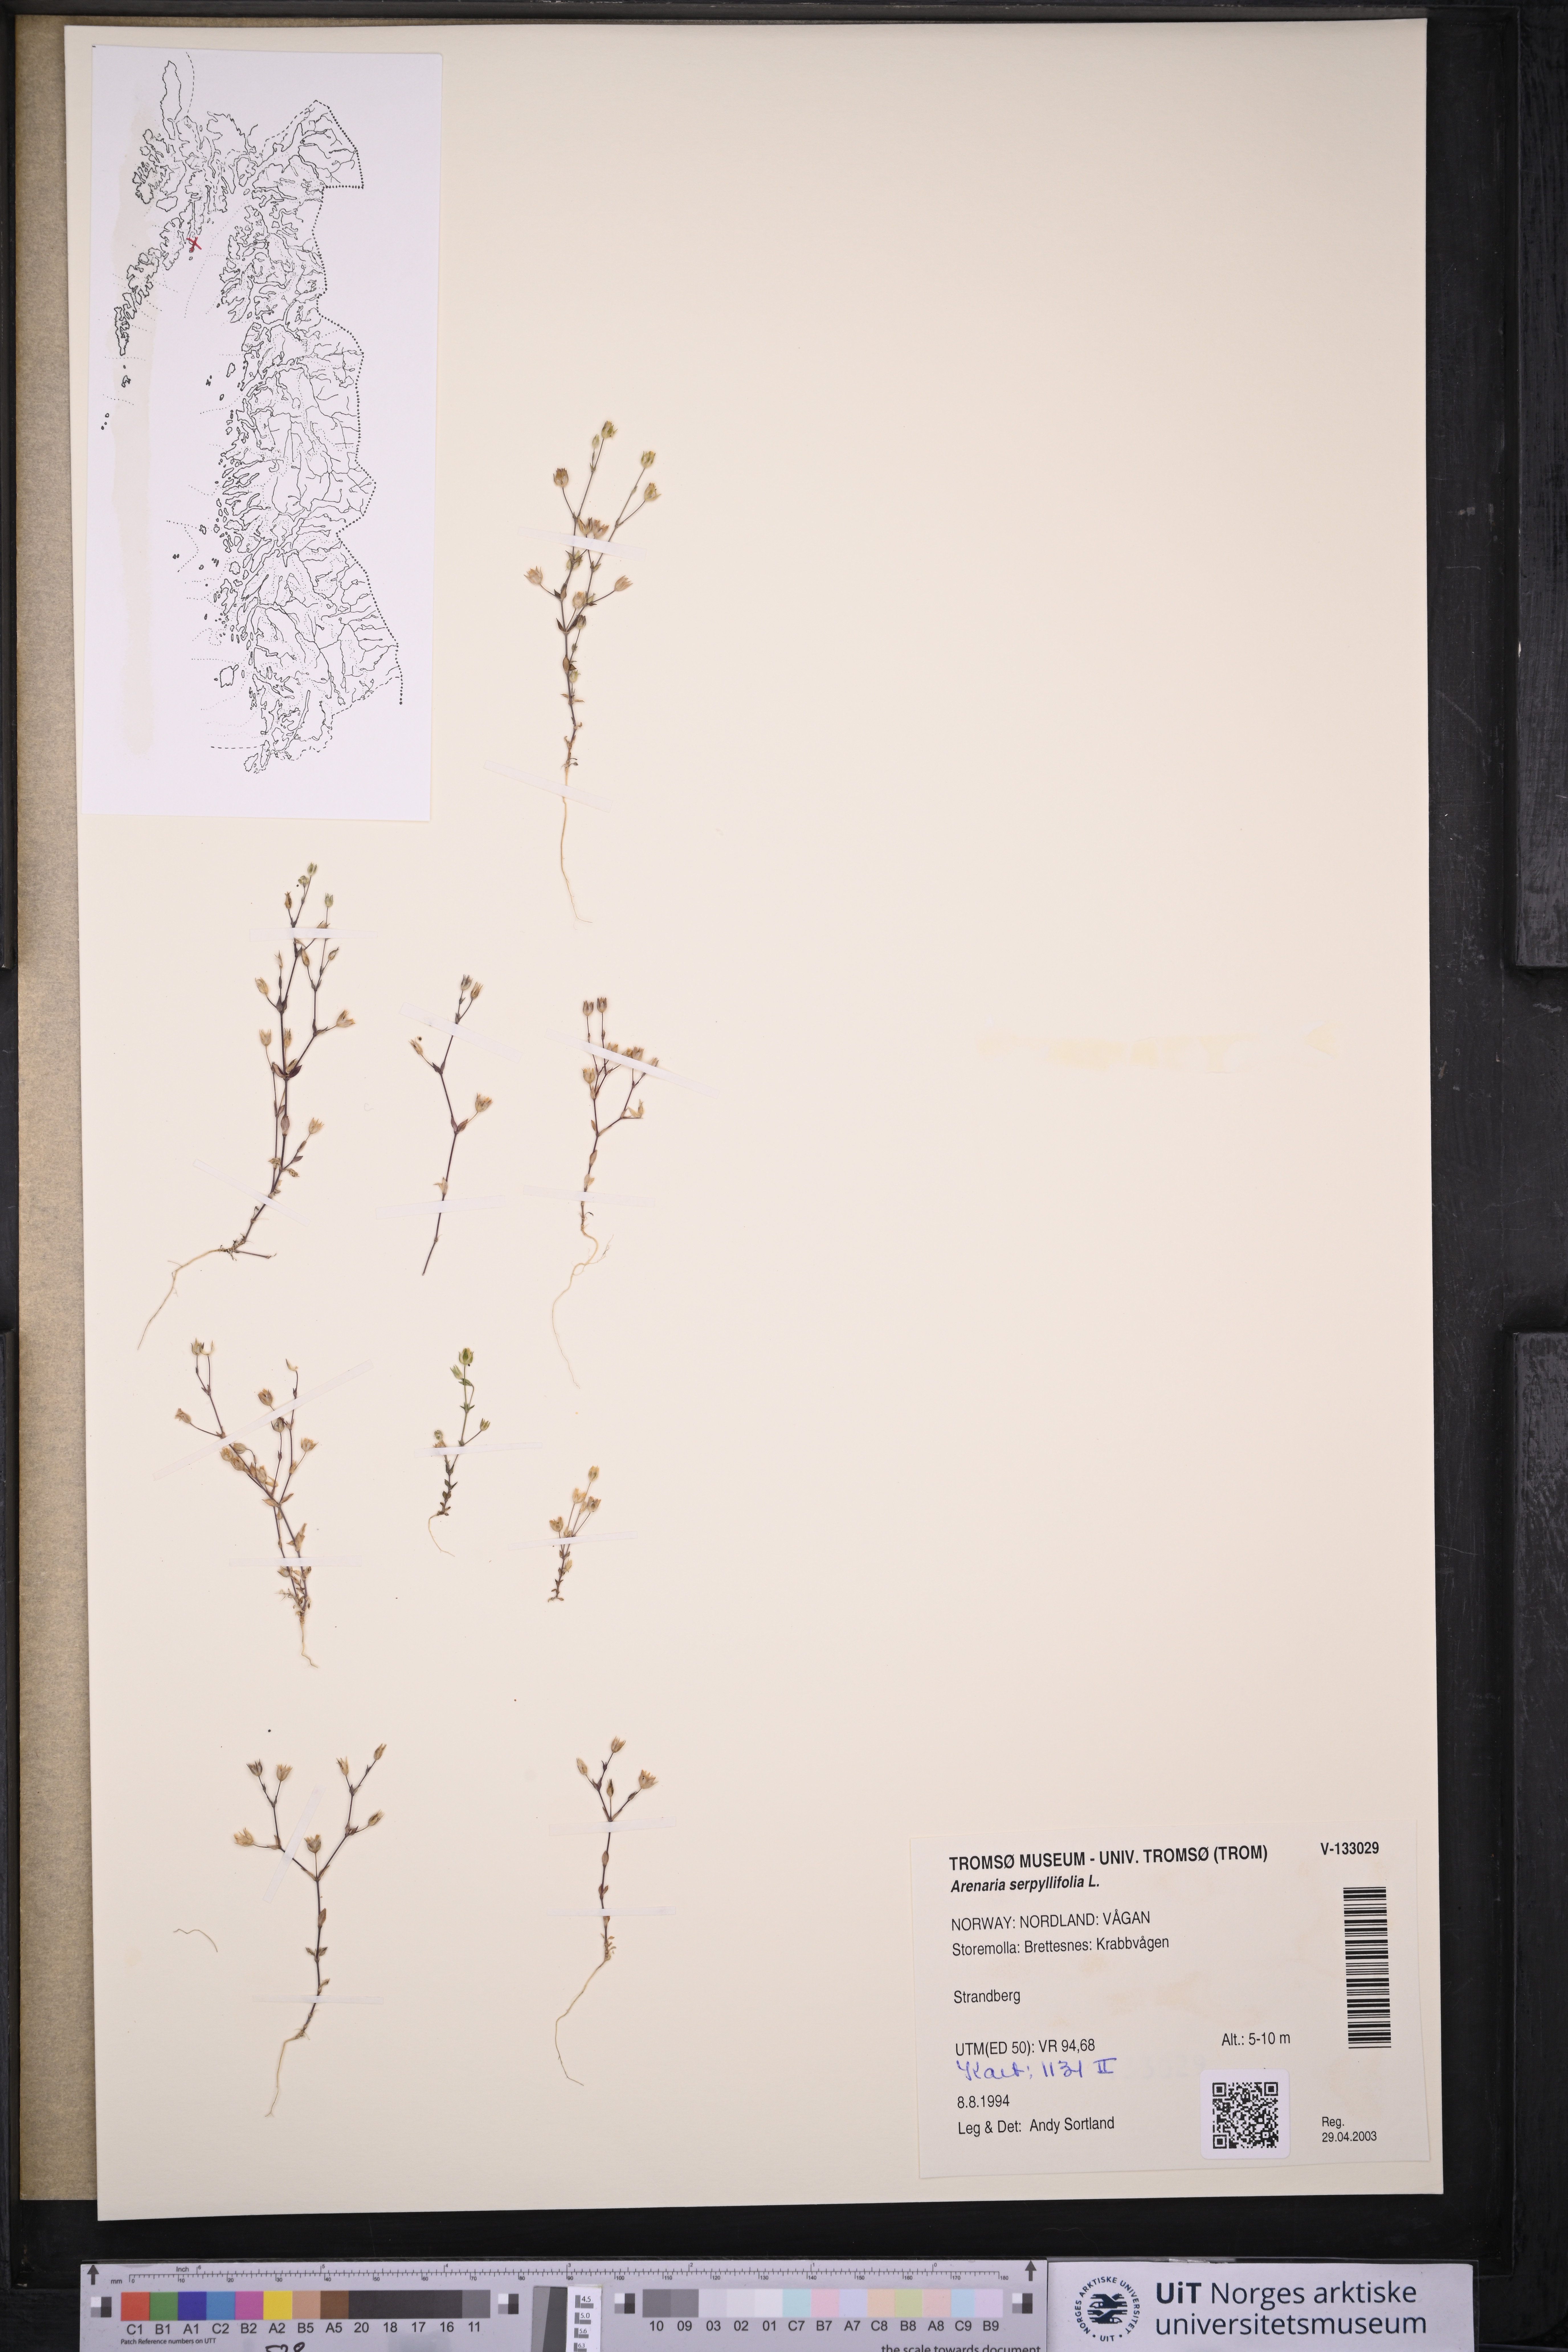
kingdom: Plantae
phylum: Tracheophyta
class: Magnoliopsida
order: Caryophyllales
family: Caryophyllaceae
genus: Arenaria
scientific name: Arenaria serpyllifolia
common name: Thyme-leaved sandwort
